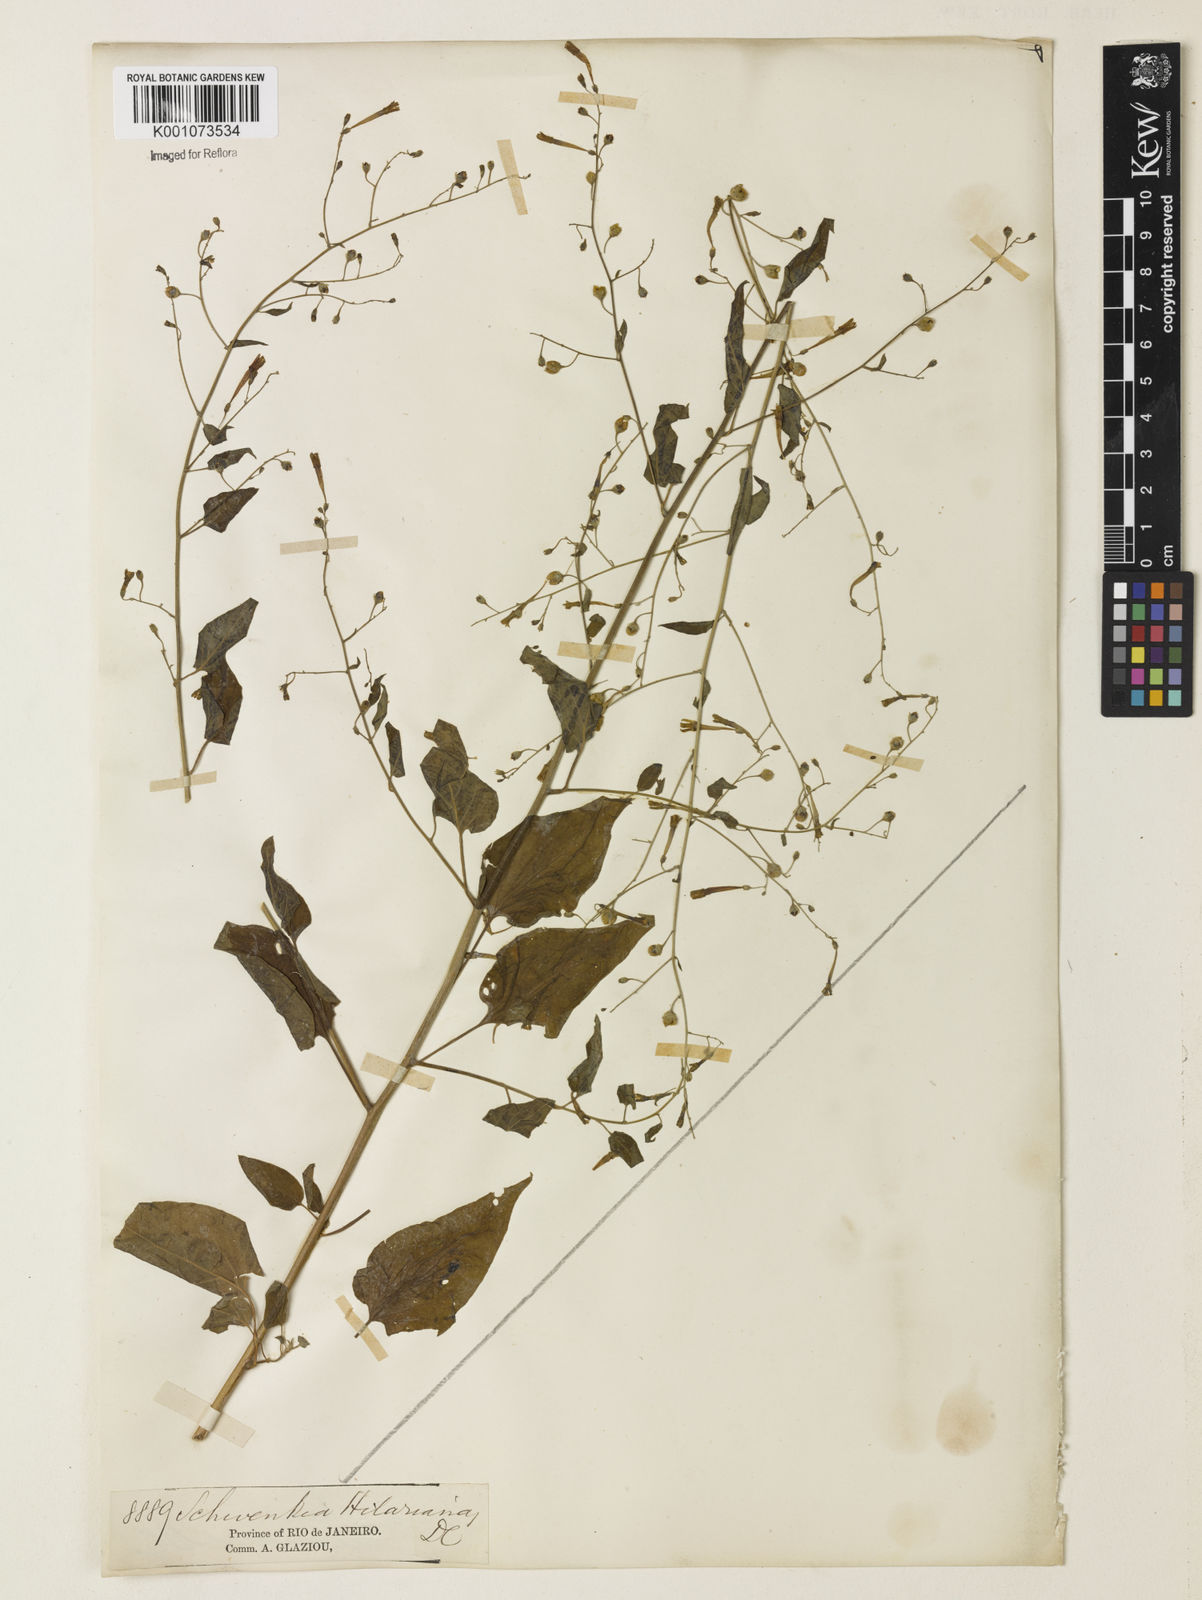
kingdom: Plantae
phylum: Tracheophyta
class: Magnoliopsida
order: Solanales
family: Solanaceae
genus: Schwenckia
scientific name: Schwenckia americana
